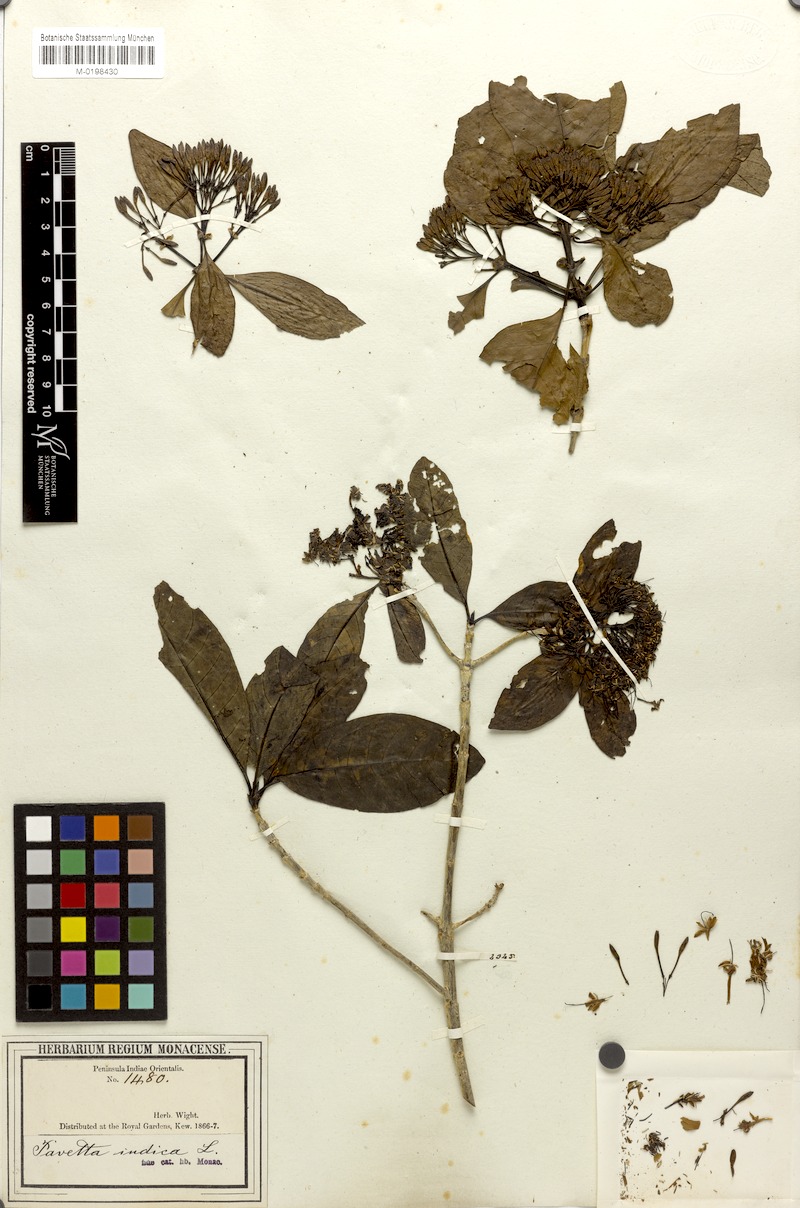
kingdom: Plantae
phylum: Tracheophyta
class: Magnoliopsida
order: Gentianales
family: Rubiaceae
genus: Pavetta
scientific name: Pavetta wightii
